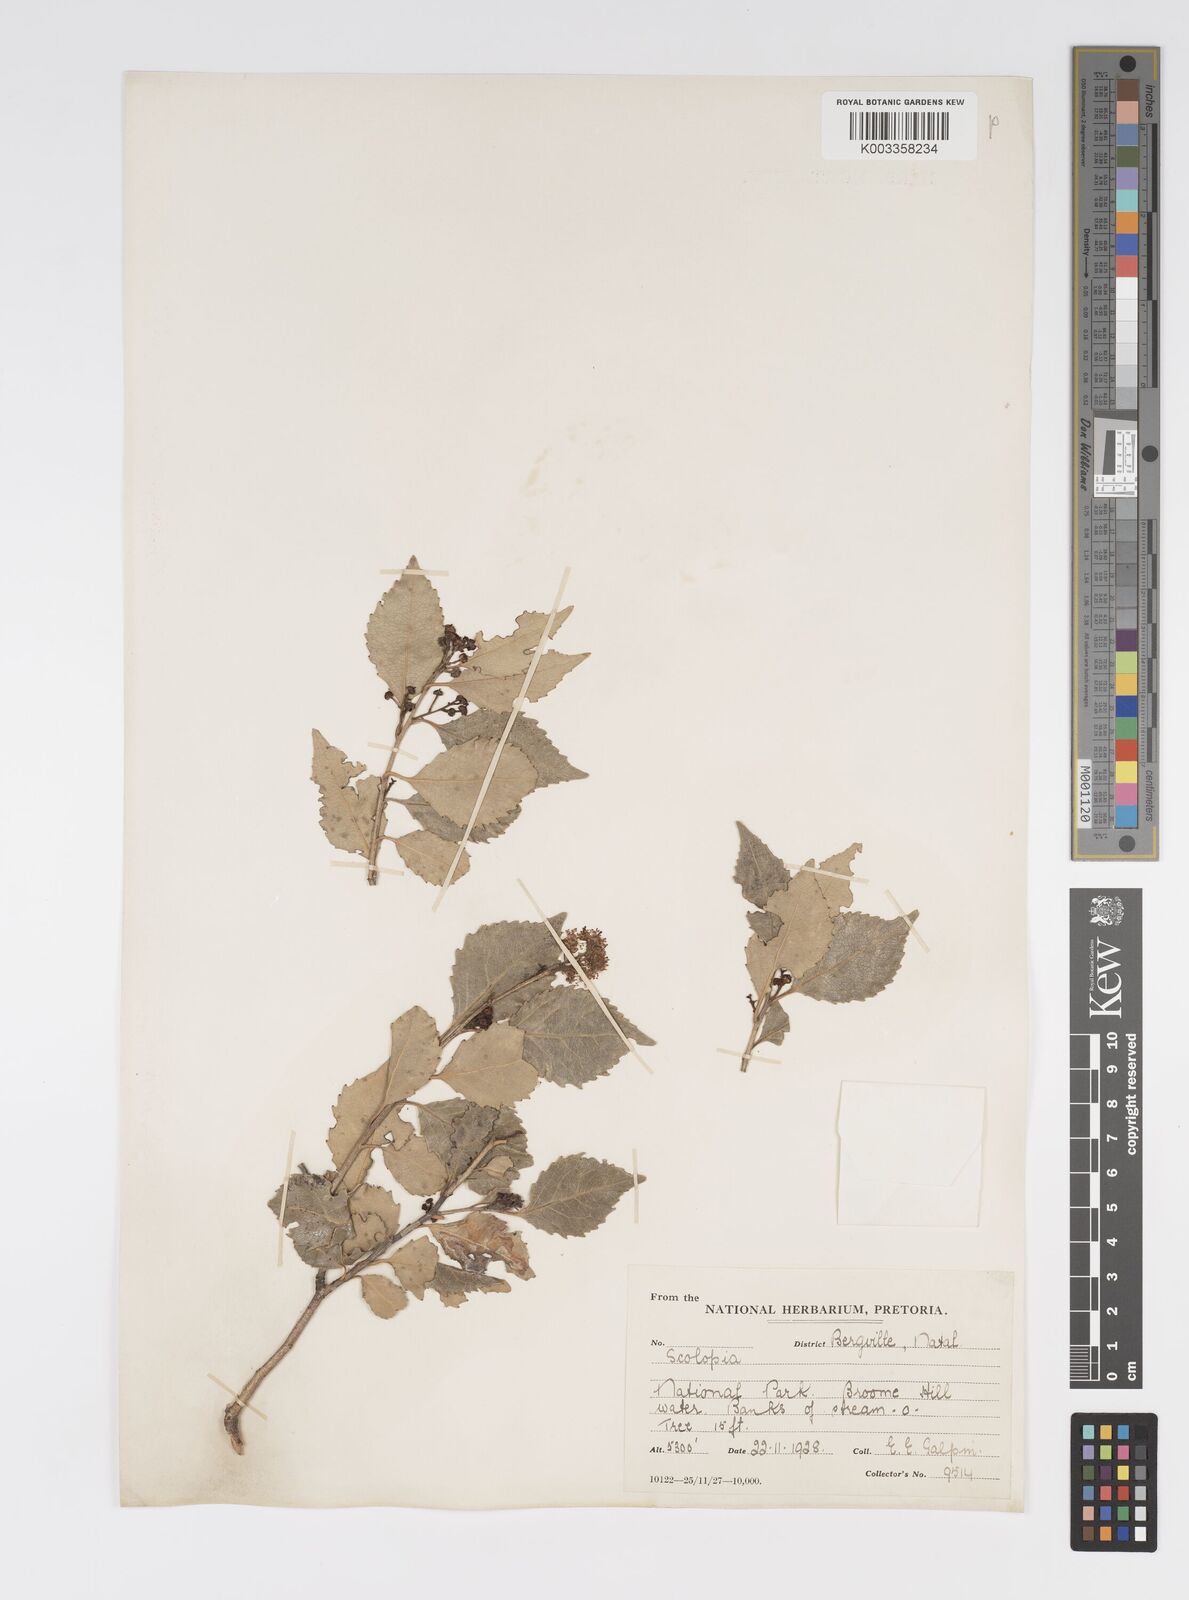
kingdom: Plantae
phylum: Tracheophyta
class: Magnoliopsida
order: Malpighiales
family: Salicaceae
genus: Scolopia
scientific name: Scolopia mundii
